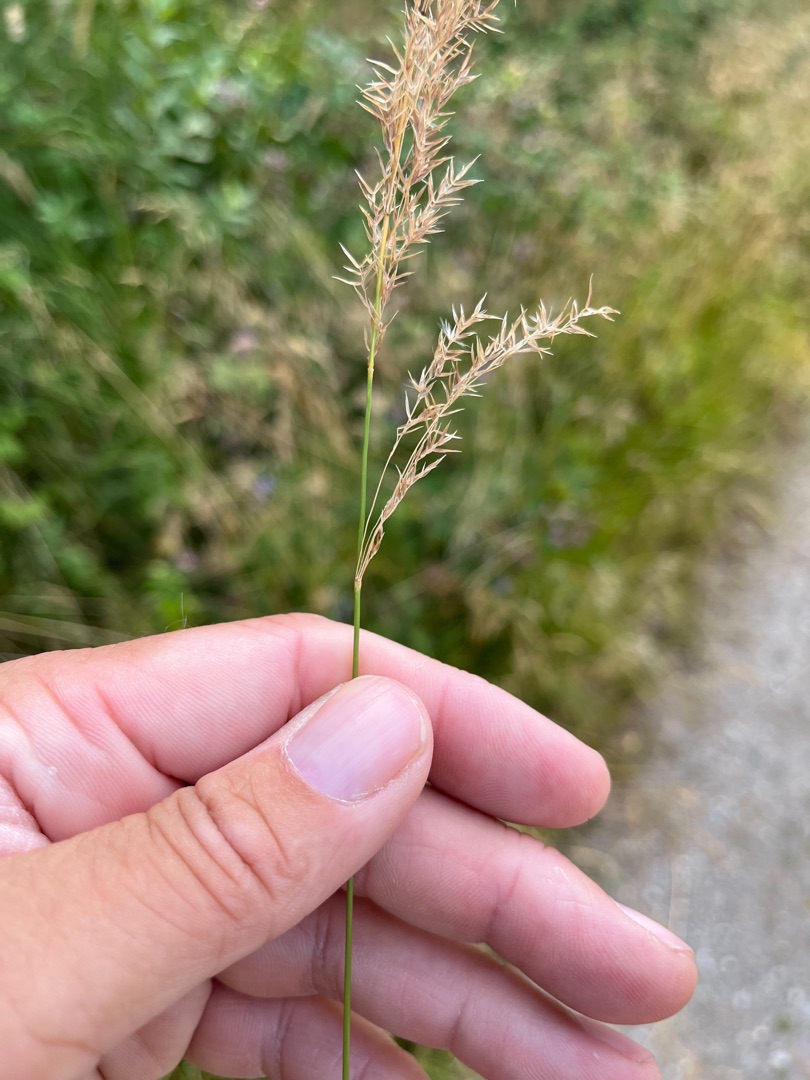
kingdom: Plantae
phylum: Tracheophyta
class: Liliopsida
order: Poales
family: Poaceae
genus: Calamagrostis
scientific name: Calamagrostis canescens
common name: Eng-rørhvene
